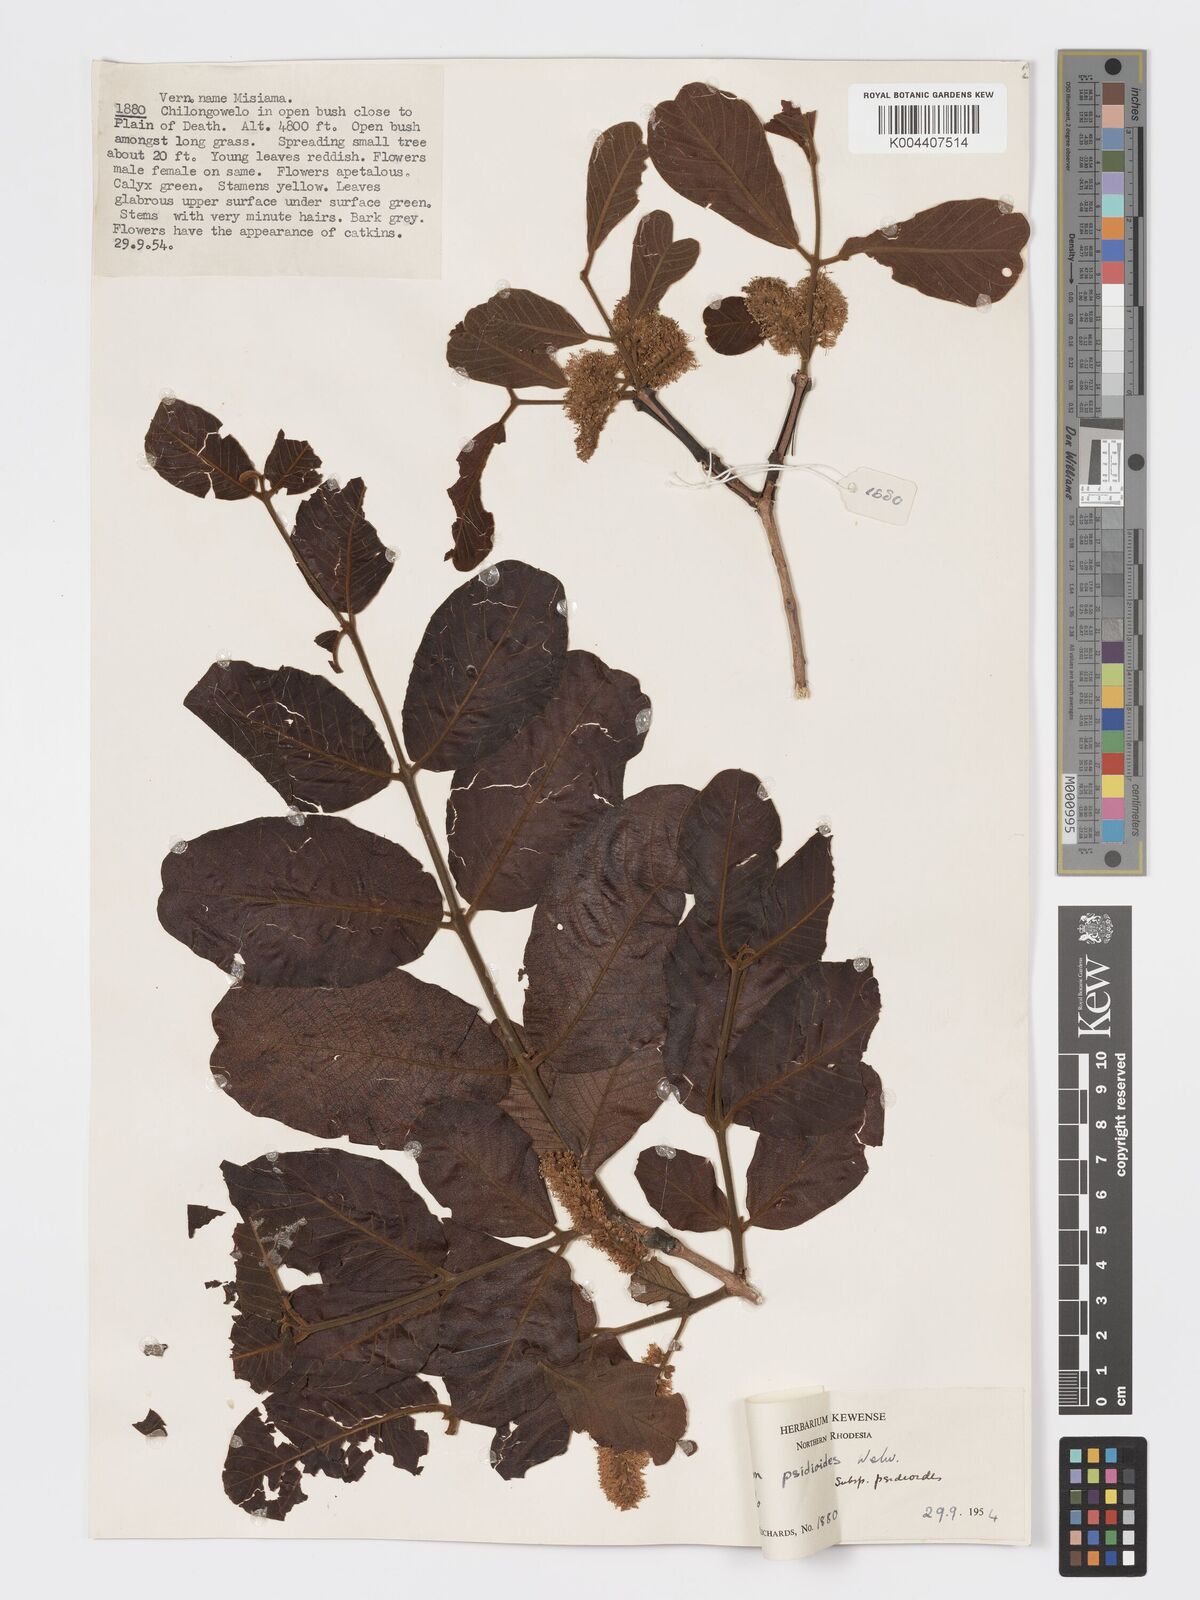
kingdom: Plantae
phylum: Tracheophyta
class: Magnoliopsida
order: Myrtales
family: Combretaceae
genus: Combretum
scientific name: Combretum psidioides
